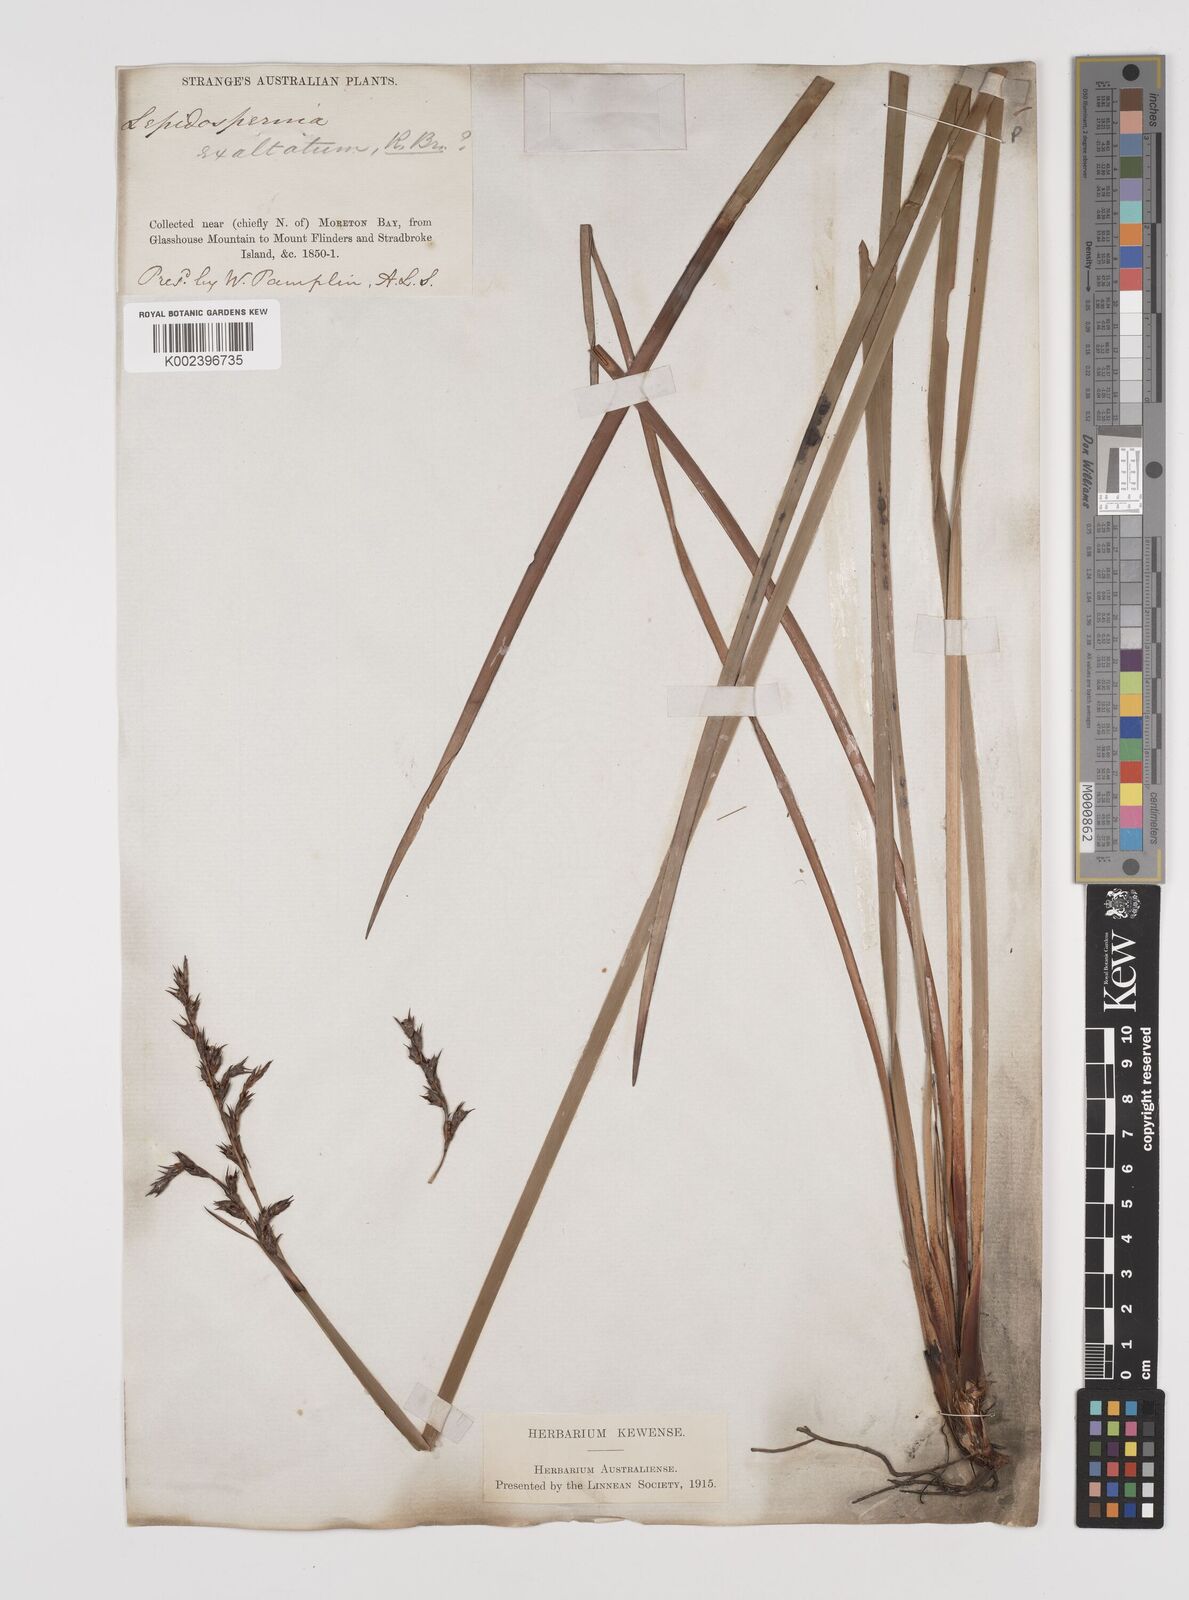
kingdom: Plantae
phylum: Tracheophyta
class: Liliopsida
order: Poales
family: Cyperaceae
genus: Lepidosperma
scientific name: Lepidosperma laterale
